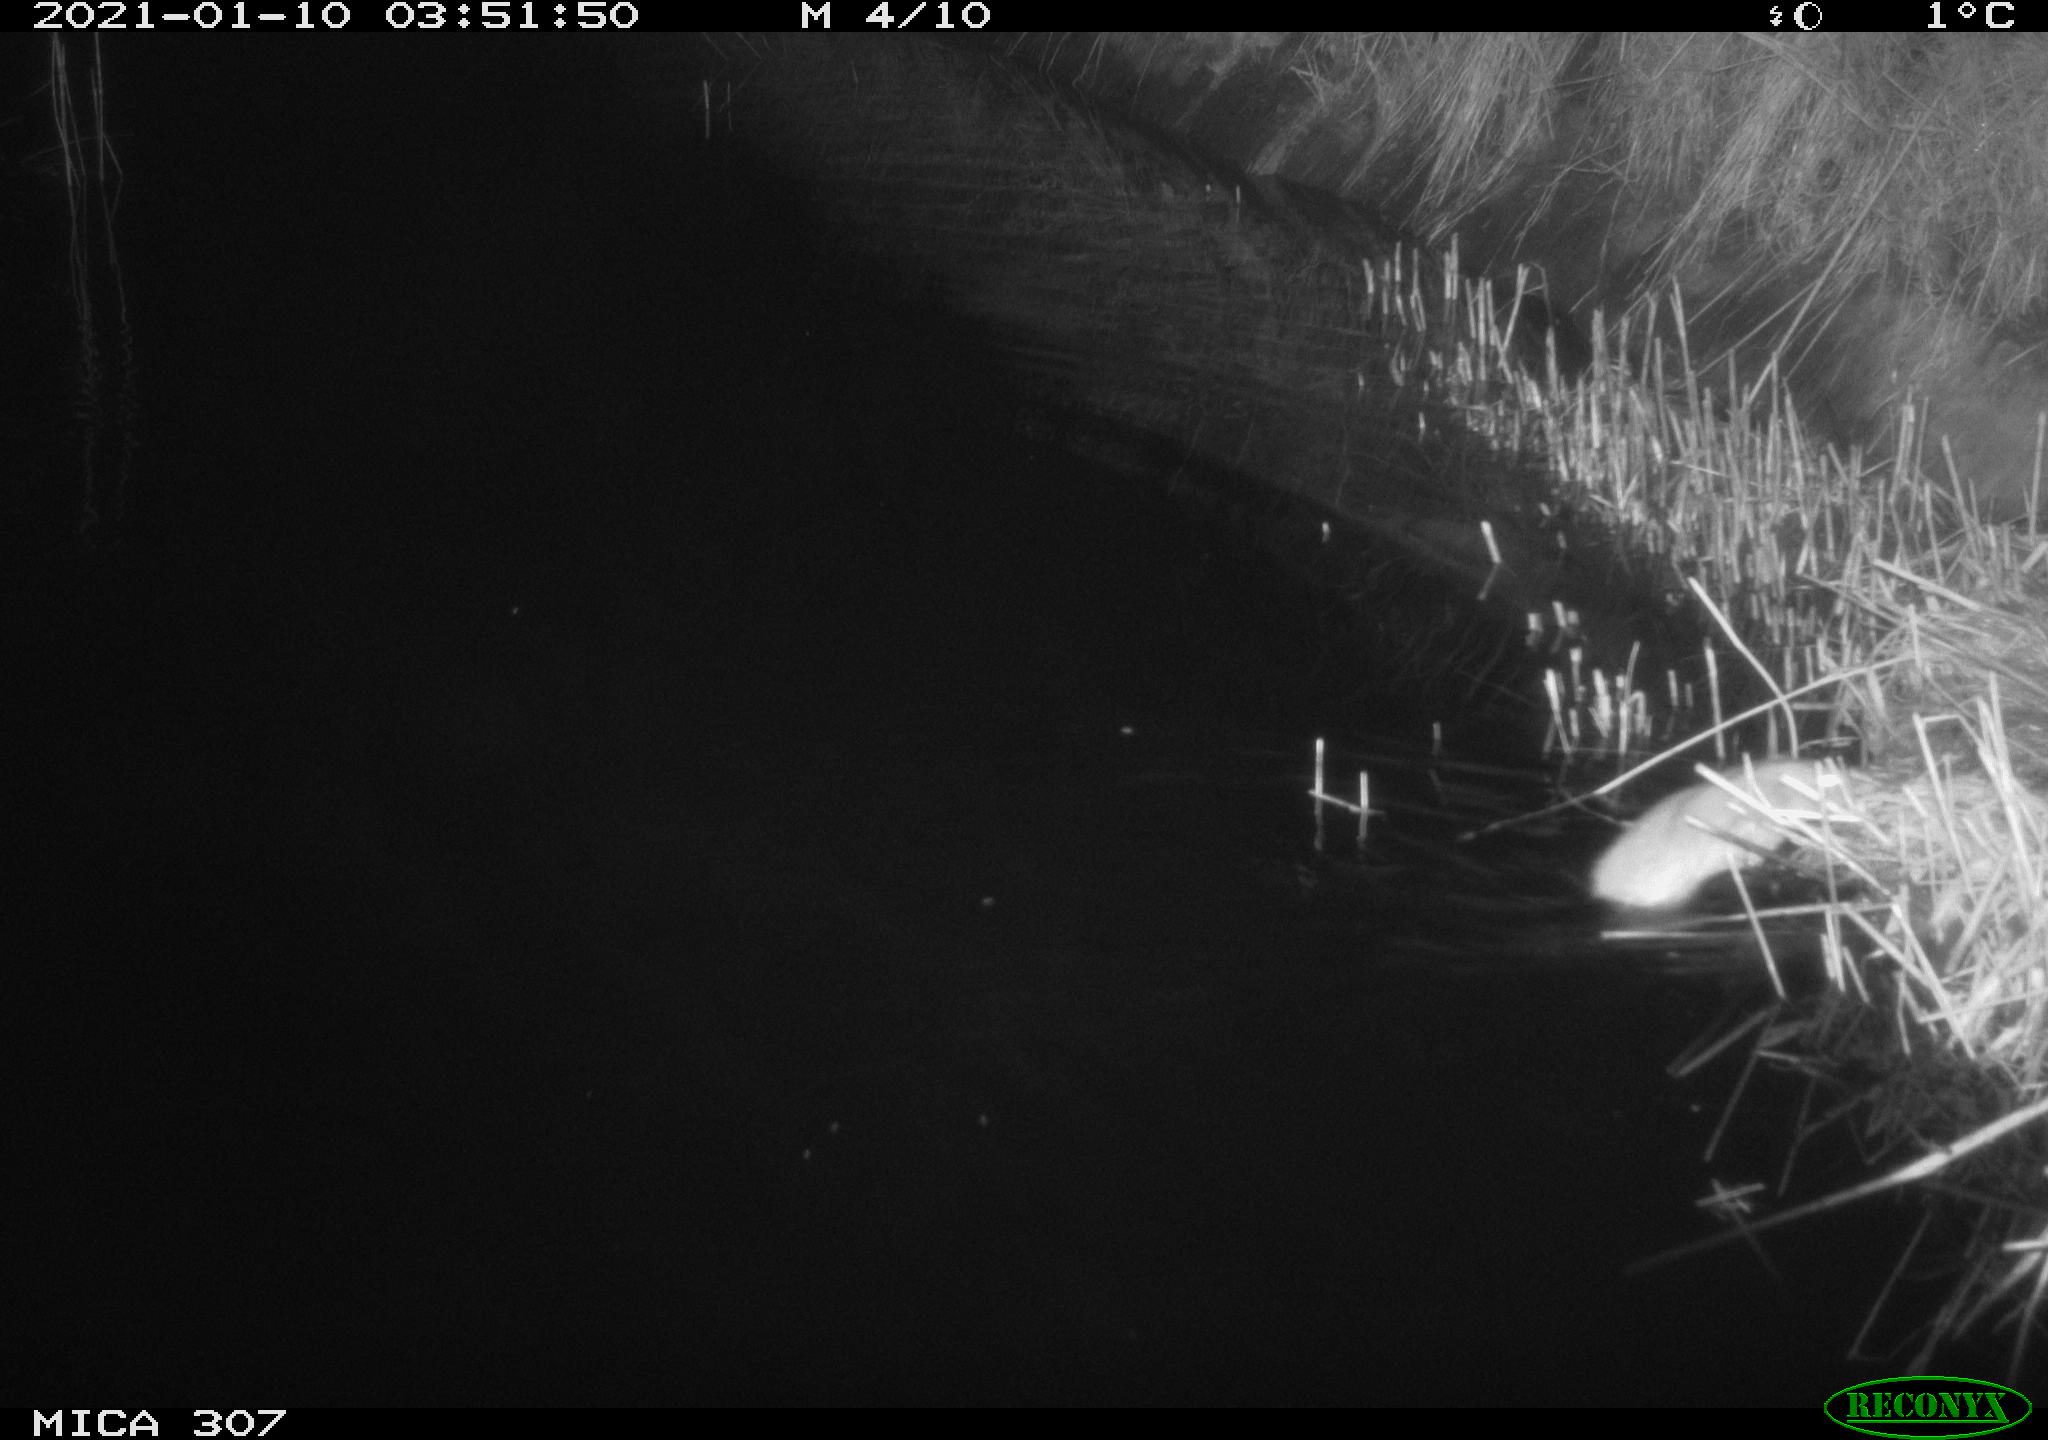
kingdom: Animalia
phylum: Chordata
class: Mammalia
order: Rodentia
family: Muridae
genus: Rattus
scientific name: Rattus norvegicus
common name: Brown rat
